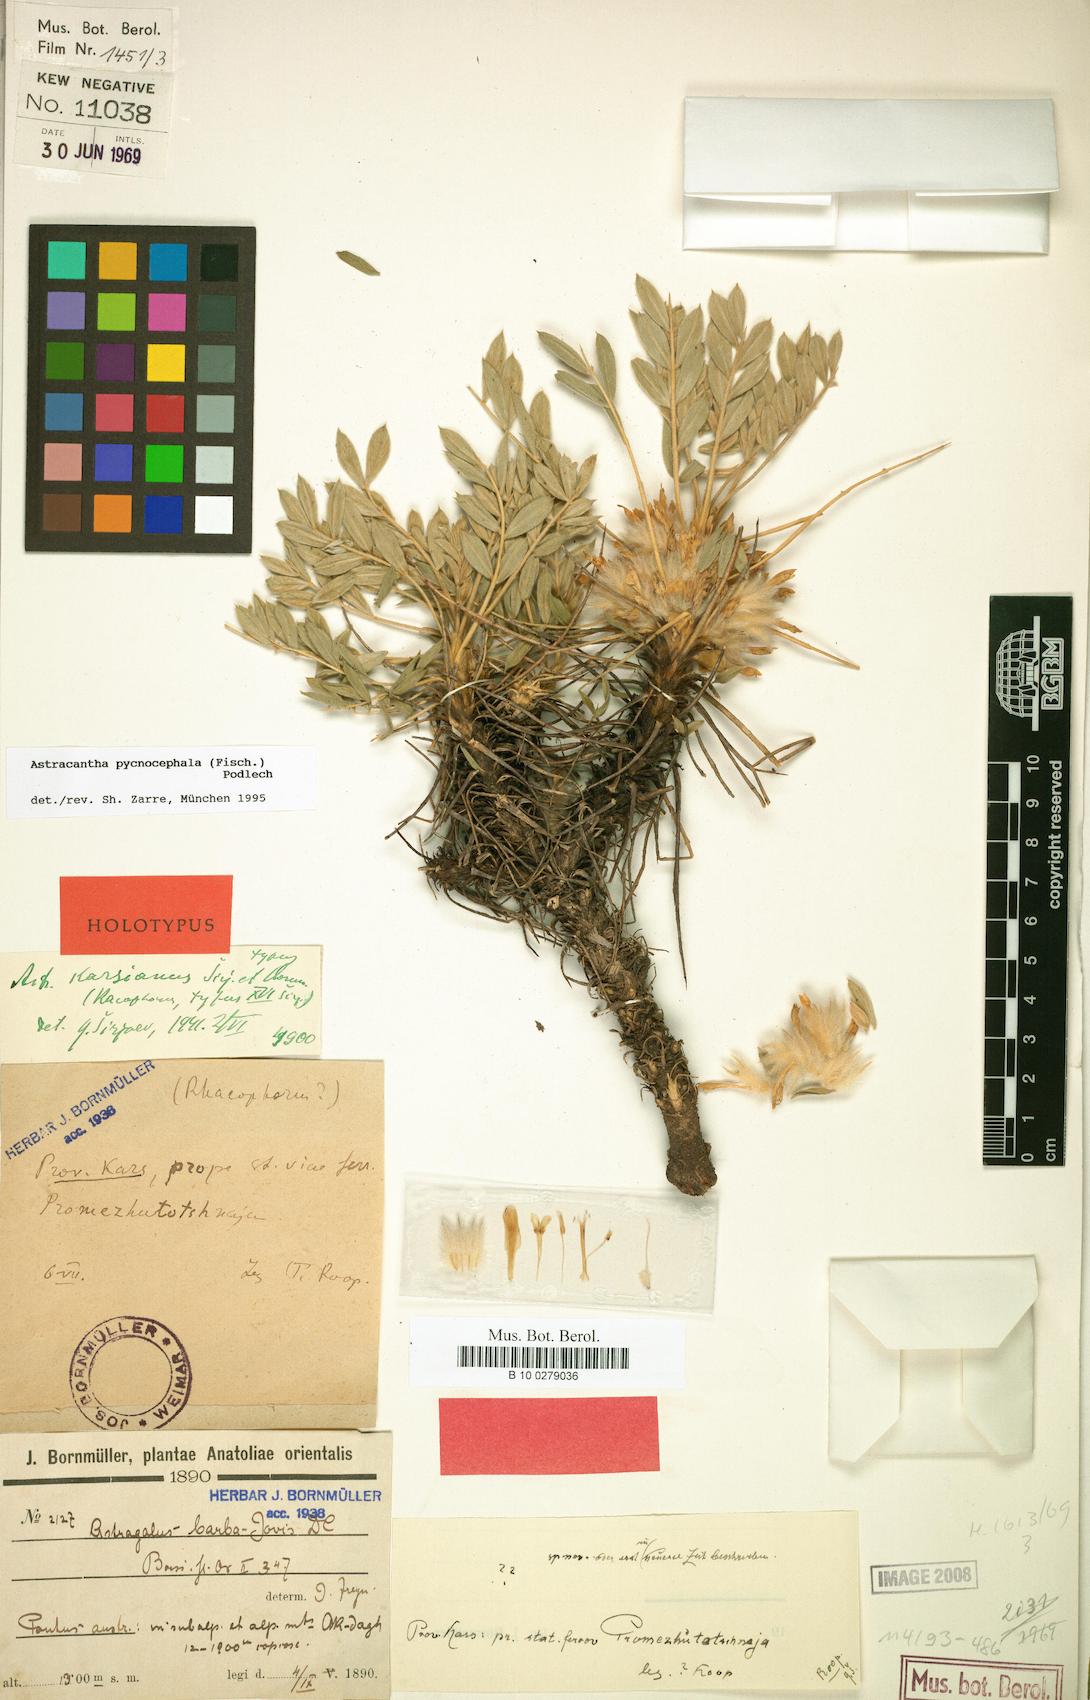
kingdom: Chromista
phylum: Cercozoa
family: Astracanthidae
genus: Astracantha
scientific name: Astracantha
